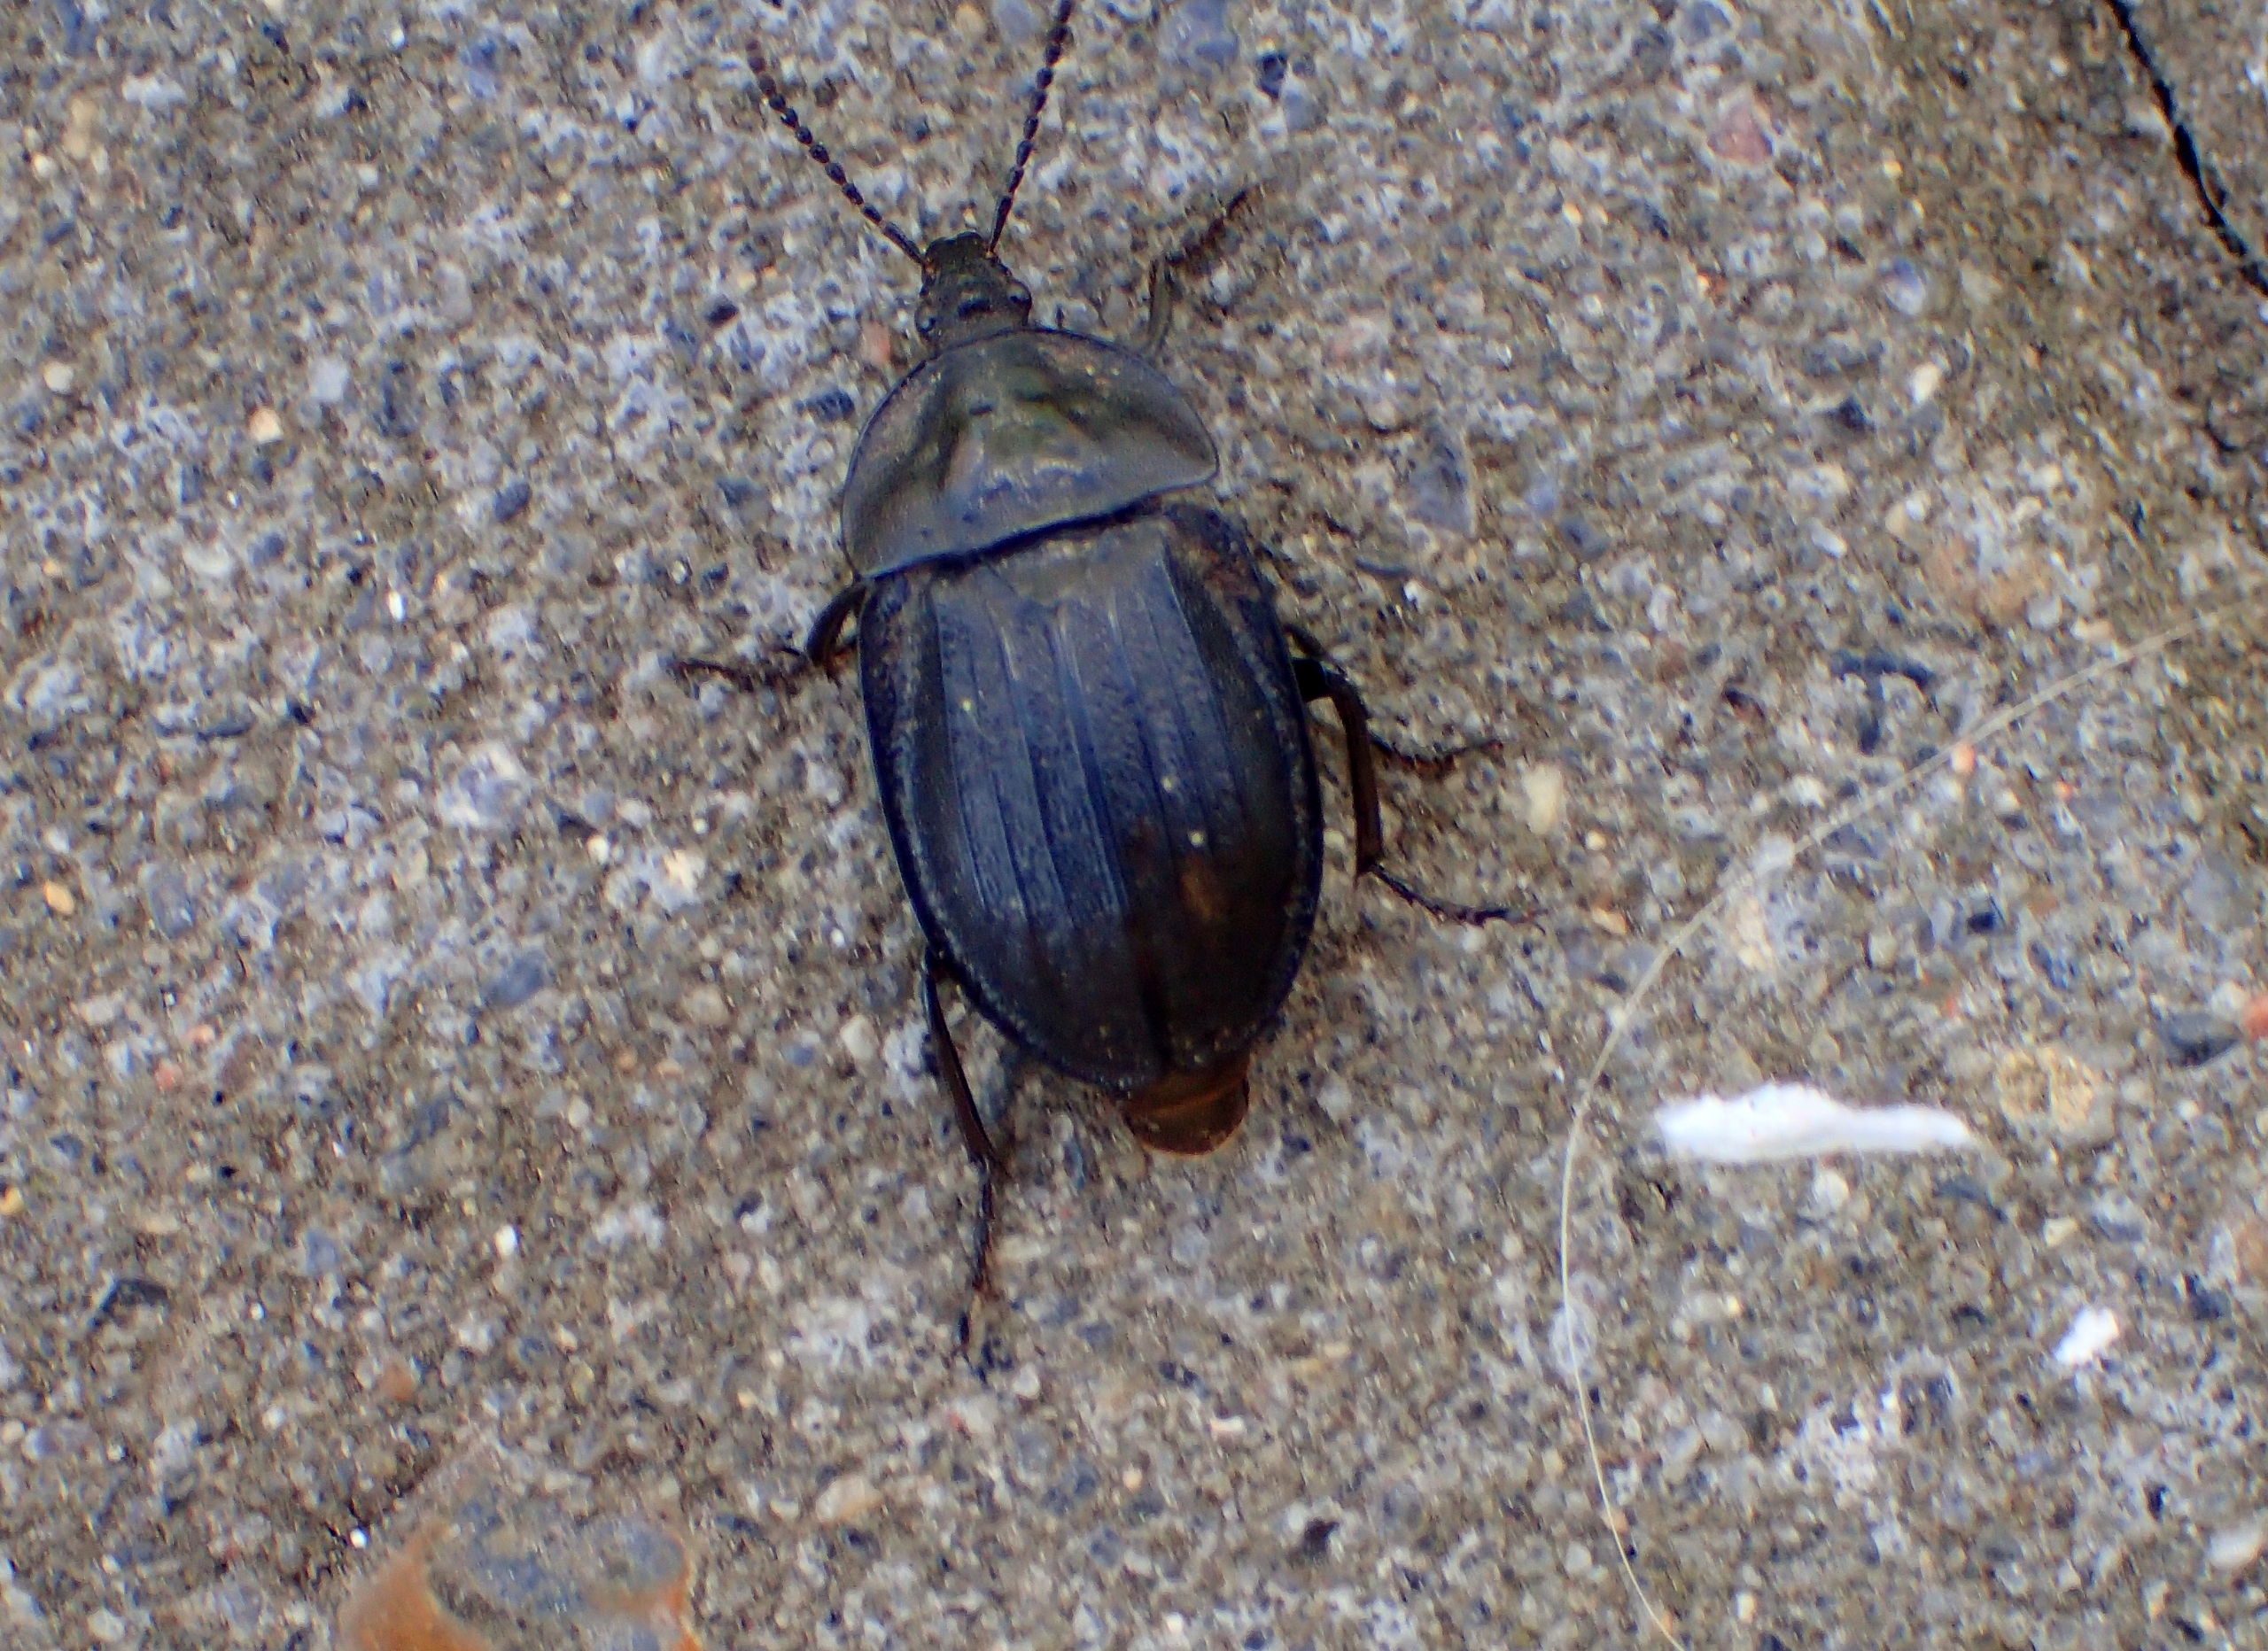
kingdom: Animalia
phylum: Arthropoda
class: Insecta
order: Coleoptera
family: Staphylinidae
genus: Silpha
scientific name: Silpha atrata
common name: Snegleådselbille
